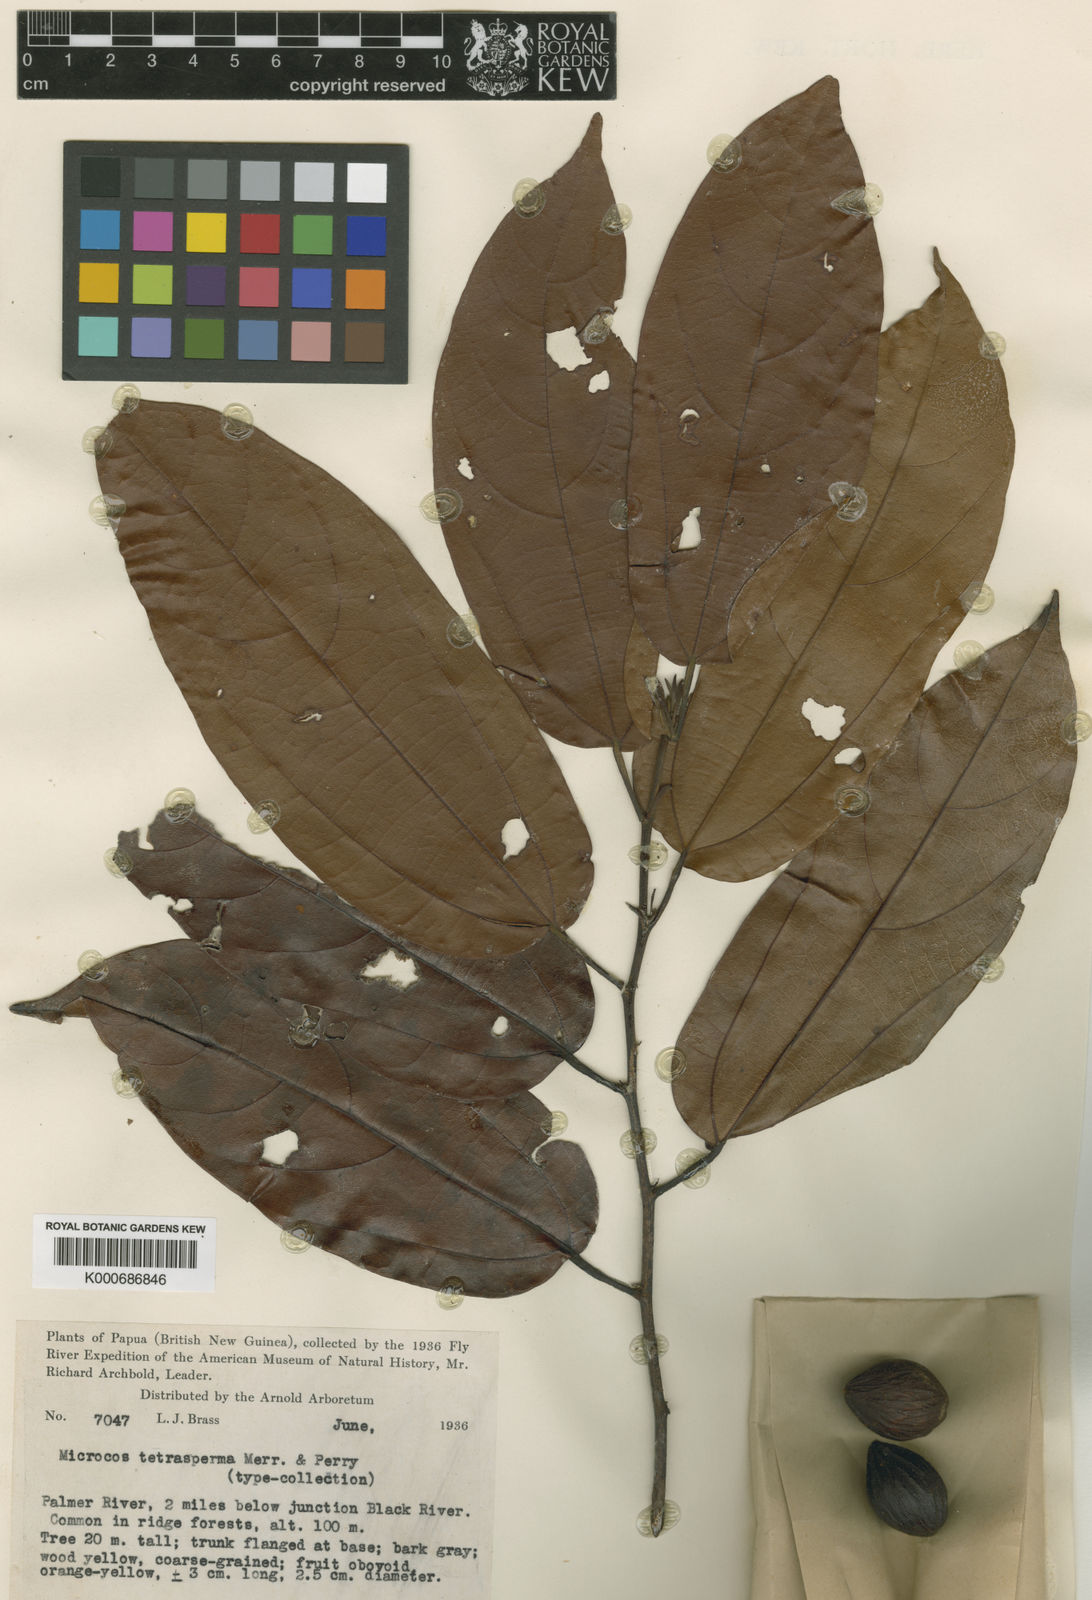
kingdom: Plantae
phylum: Tracheophyta
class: Magnoliopsida
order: Malvales
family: Malvaceae
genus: Microcos
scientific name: Microcos tetrasperma
